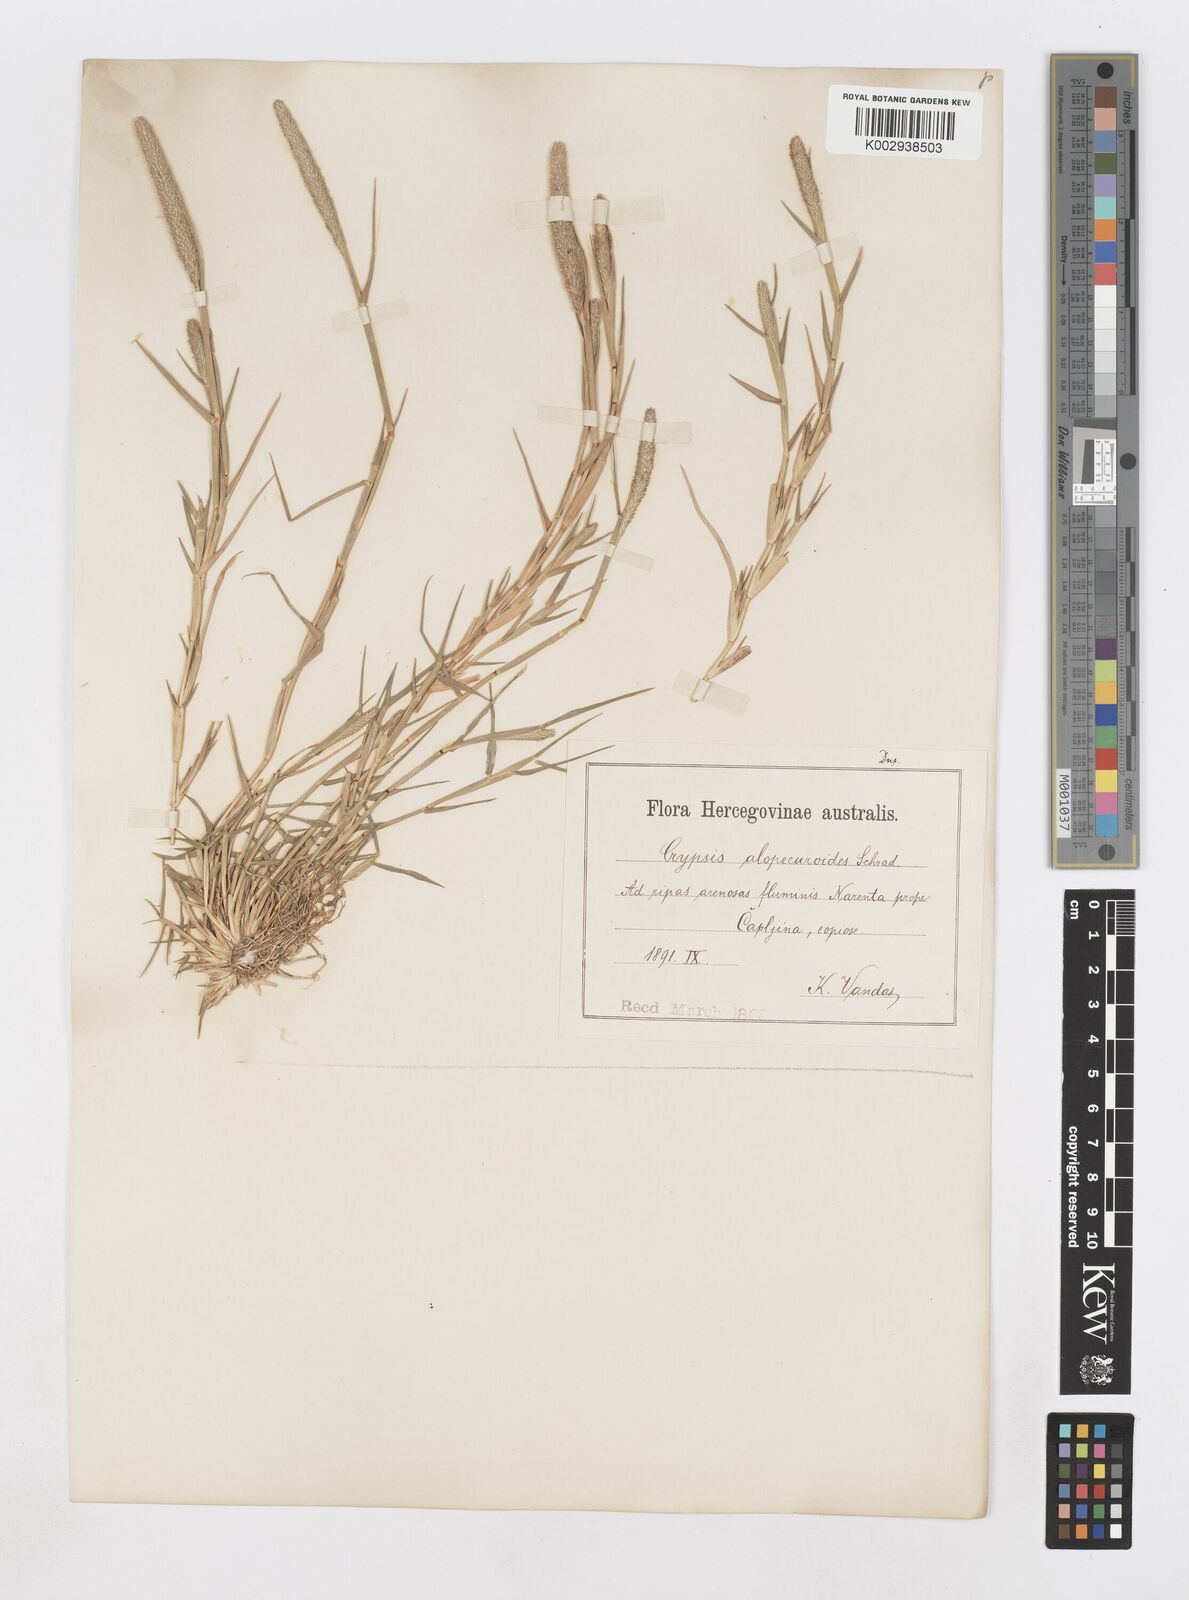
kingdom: Plantae
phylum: Tracheophyta
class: Liliopsida
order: Poales
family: Poaceae
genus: Sporobolus
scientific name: Sporobolus alopecuroides
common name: Foxtail pricklegrass
